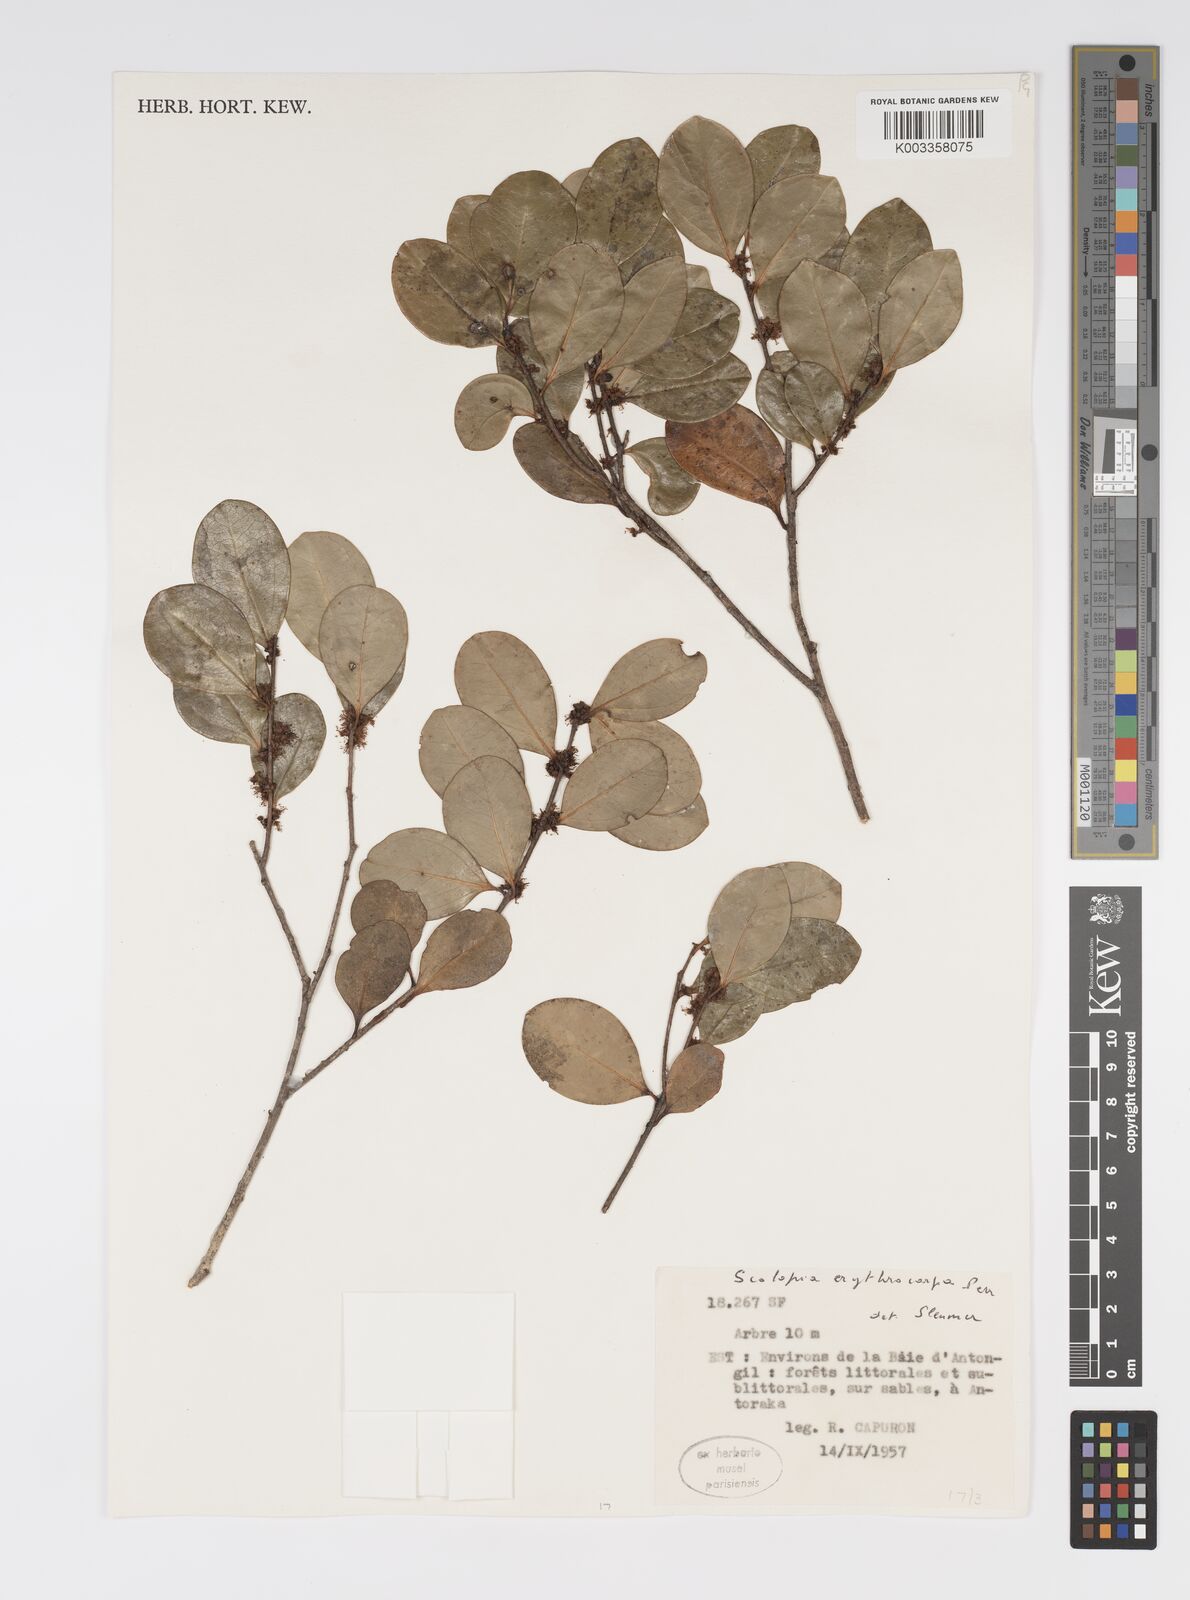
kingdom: Plantae
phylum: Tracheophyta
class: Magnoliopsida
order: Malpighiales
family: Salicaceae
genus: Scolopia
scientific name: Scolopia erythrocarpa
